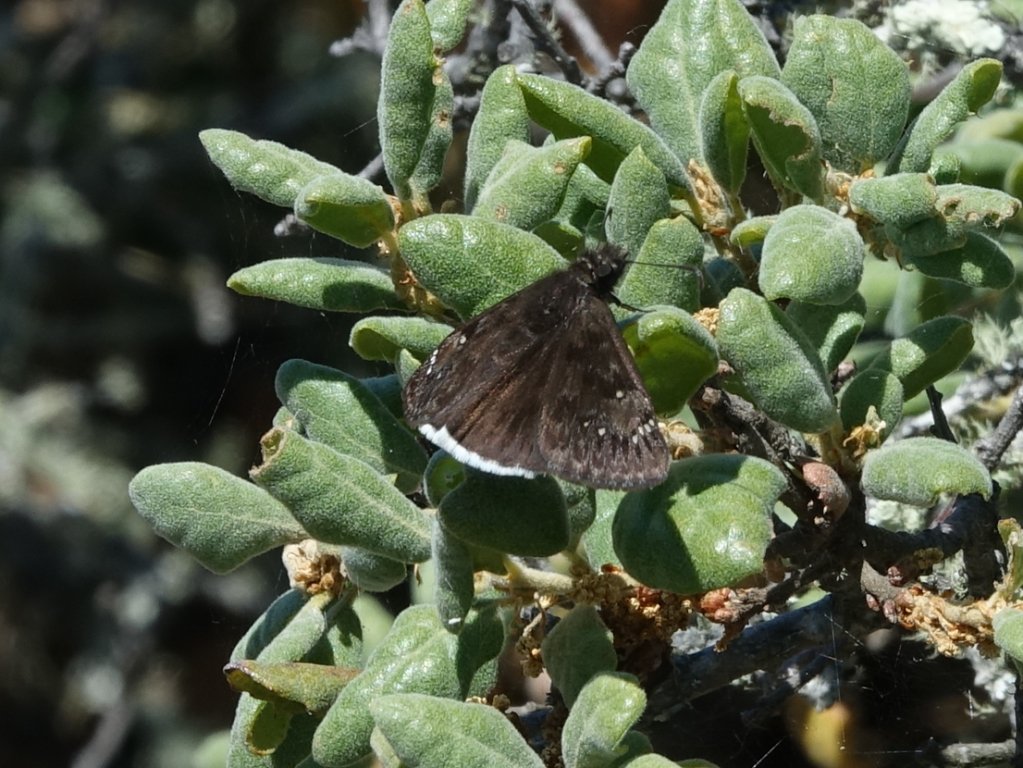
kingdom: Animalia
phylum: Arthropoda
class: Insecta
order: Lepidoptera
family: Hesperiidae
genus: Erynnis
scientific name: Erynnis tristis
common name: Mournful Duskywing
